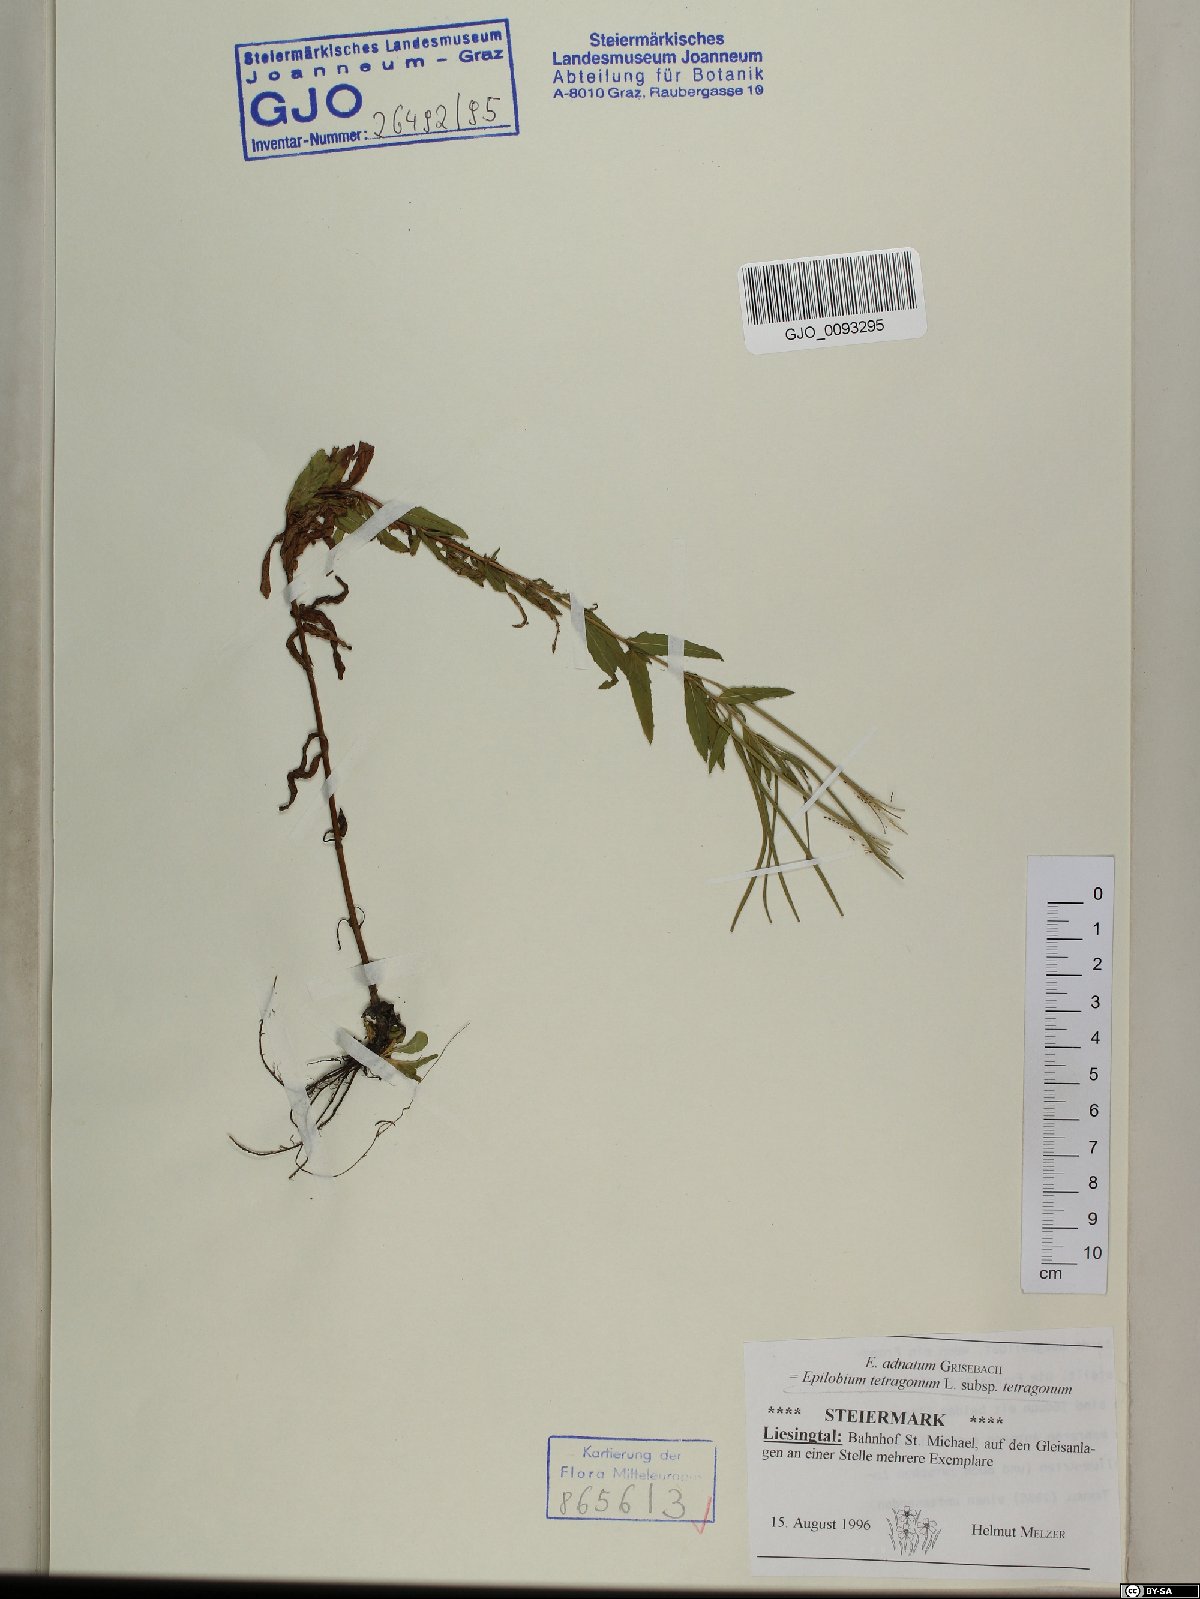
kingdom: Plantae
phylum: Tracheophyta
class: Magnoliopsida
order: Myrtales
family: Onagraceae
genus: Epilobium
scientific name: Epilobium tetragonum
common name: Square-stemmed willowherb
